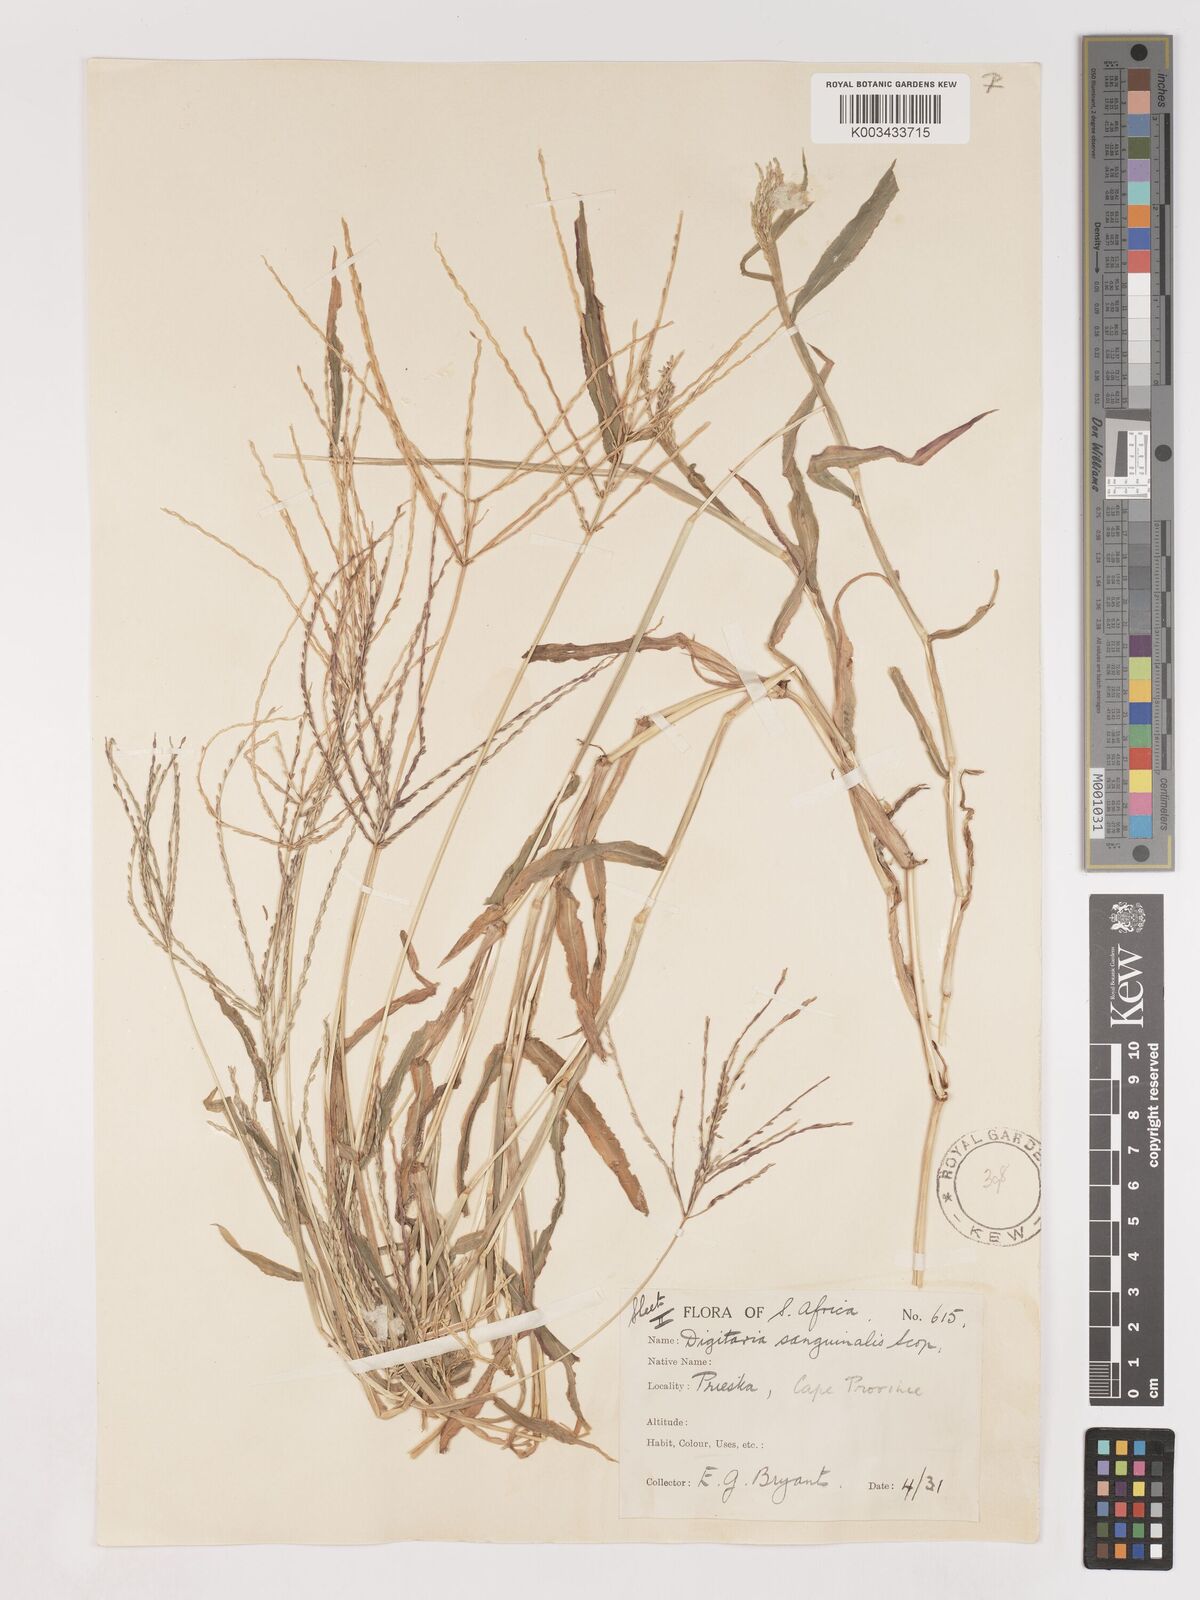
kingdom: Plantae
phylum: Tracheophyta
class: Liliopsida
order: Poales
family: Poaceae
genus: Digitaria
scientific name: Digitaria sanguinalis
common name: Hairy crabgrass
